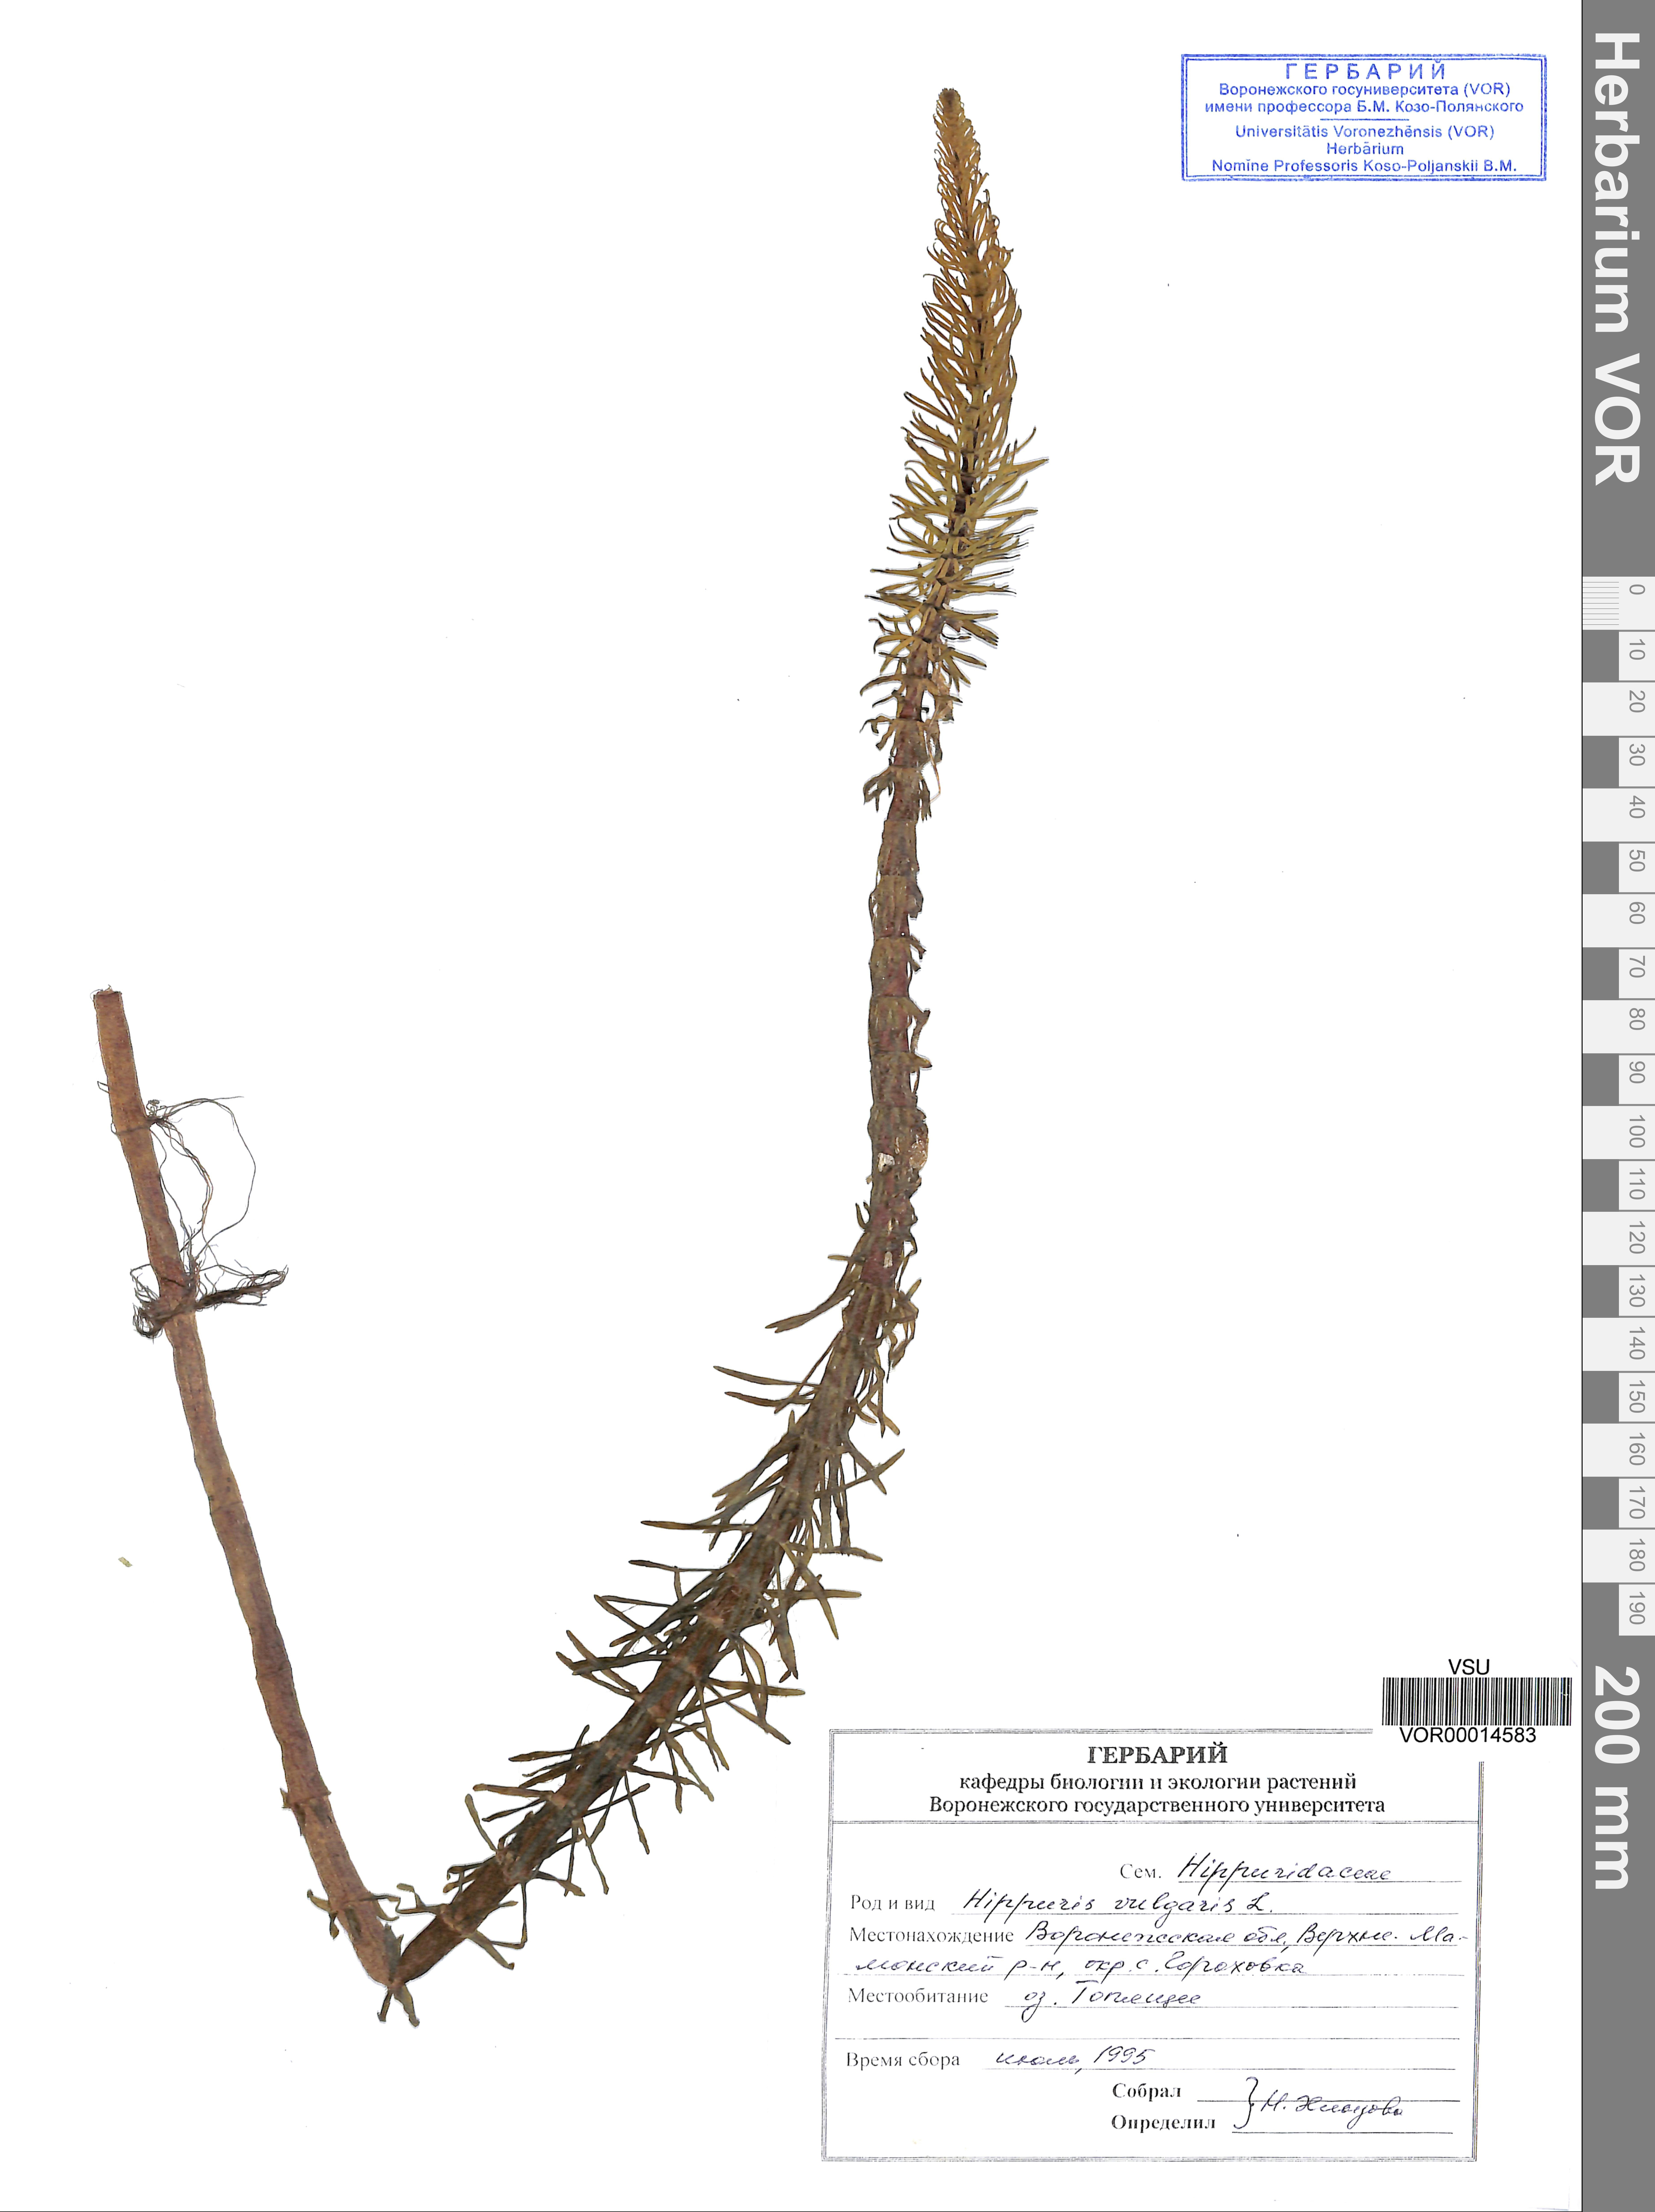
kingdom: Plantae
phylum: Tracheophyta
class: Magnoliopsida
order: Lamiales
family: Plantaginaceae
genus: Hippuris
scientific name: Hippuris vulgaris
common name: Mare's-tail
